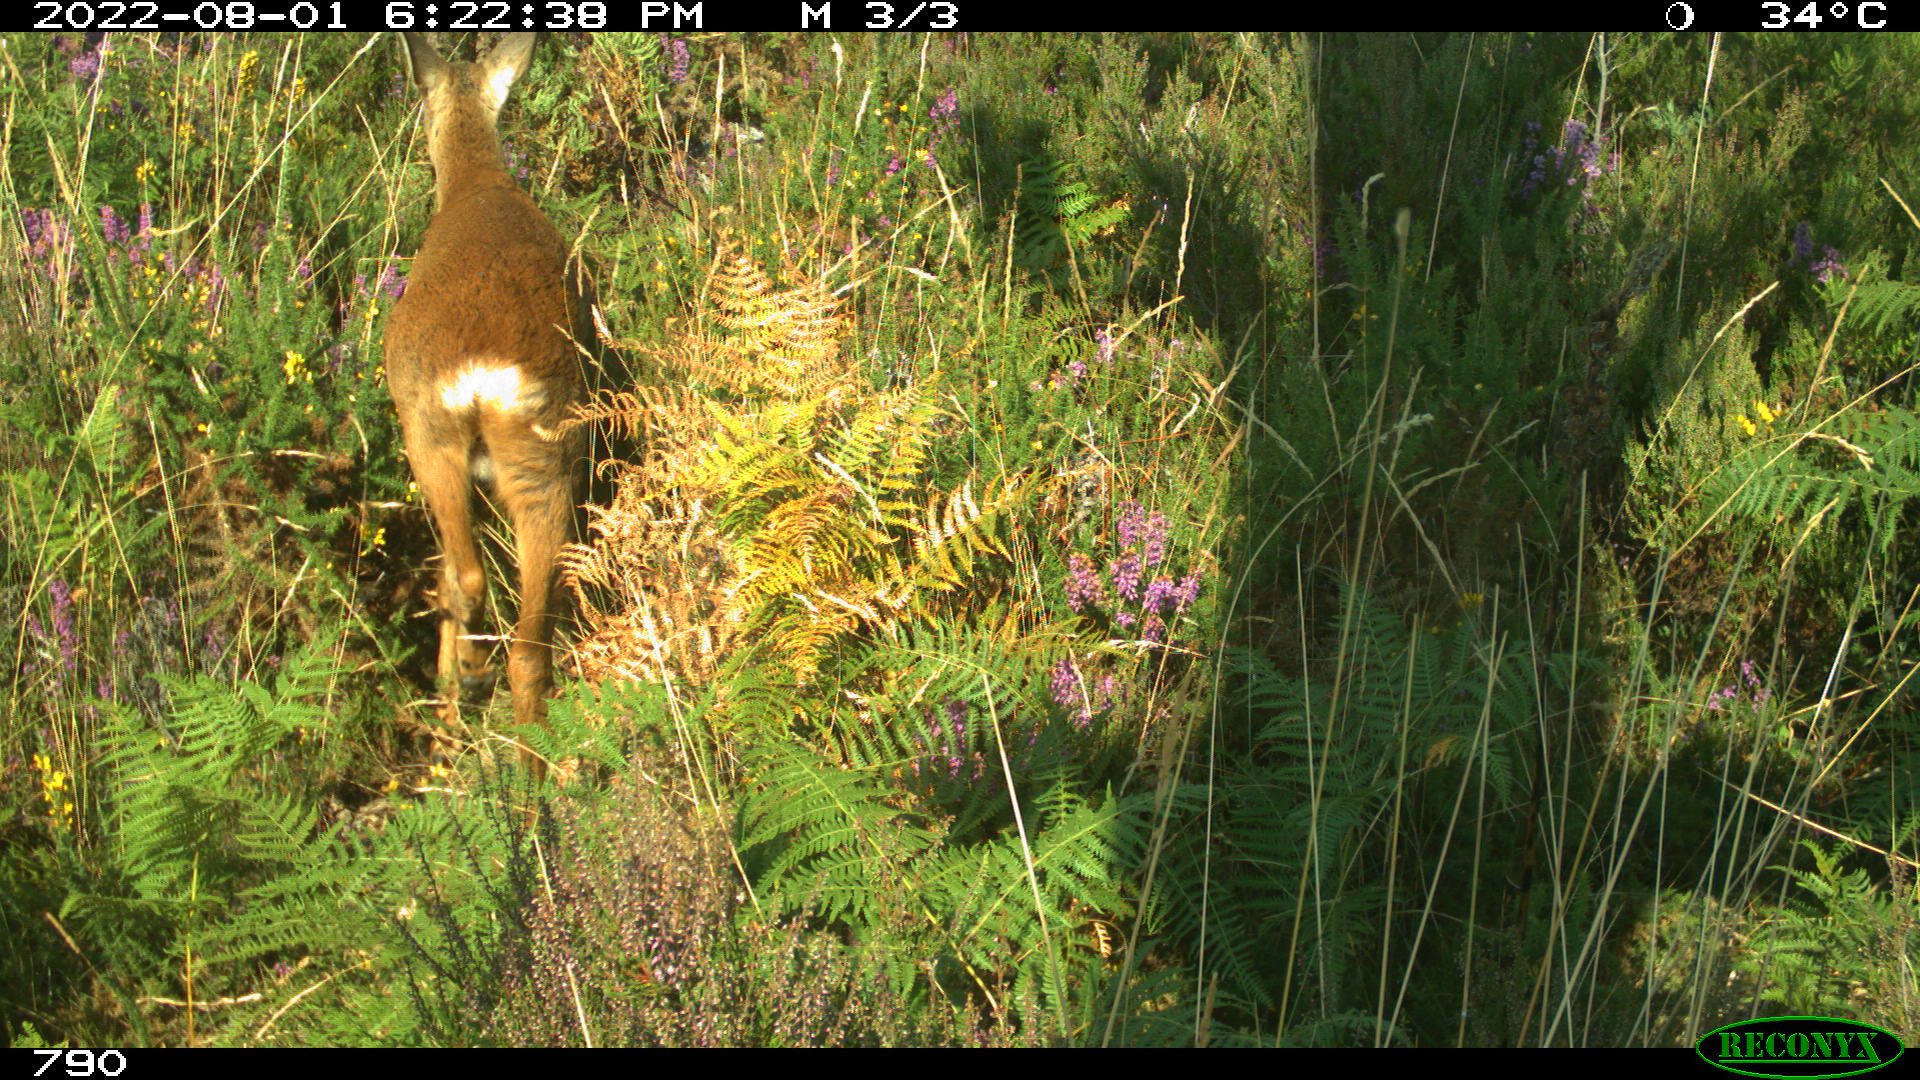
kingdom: Animalia
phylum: Chordata
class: Mammalia
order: Artiodactyla
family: Cervidae
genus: Capreolus
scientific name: Capreolus capreolus
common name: Western roe deer
